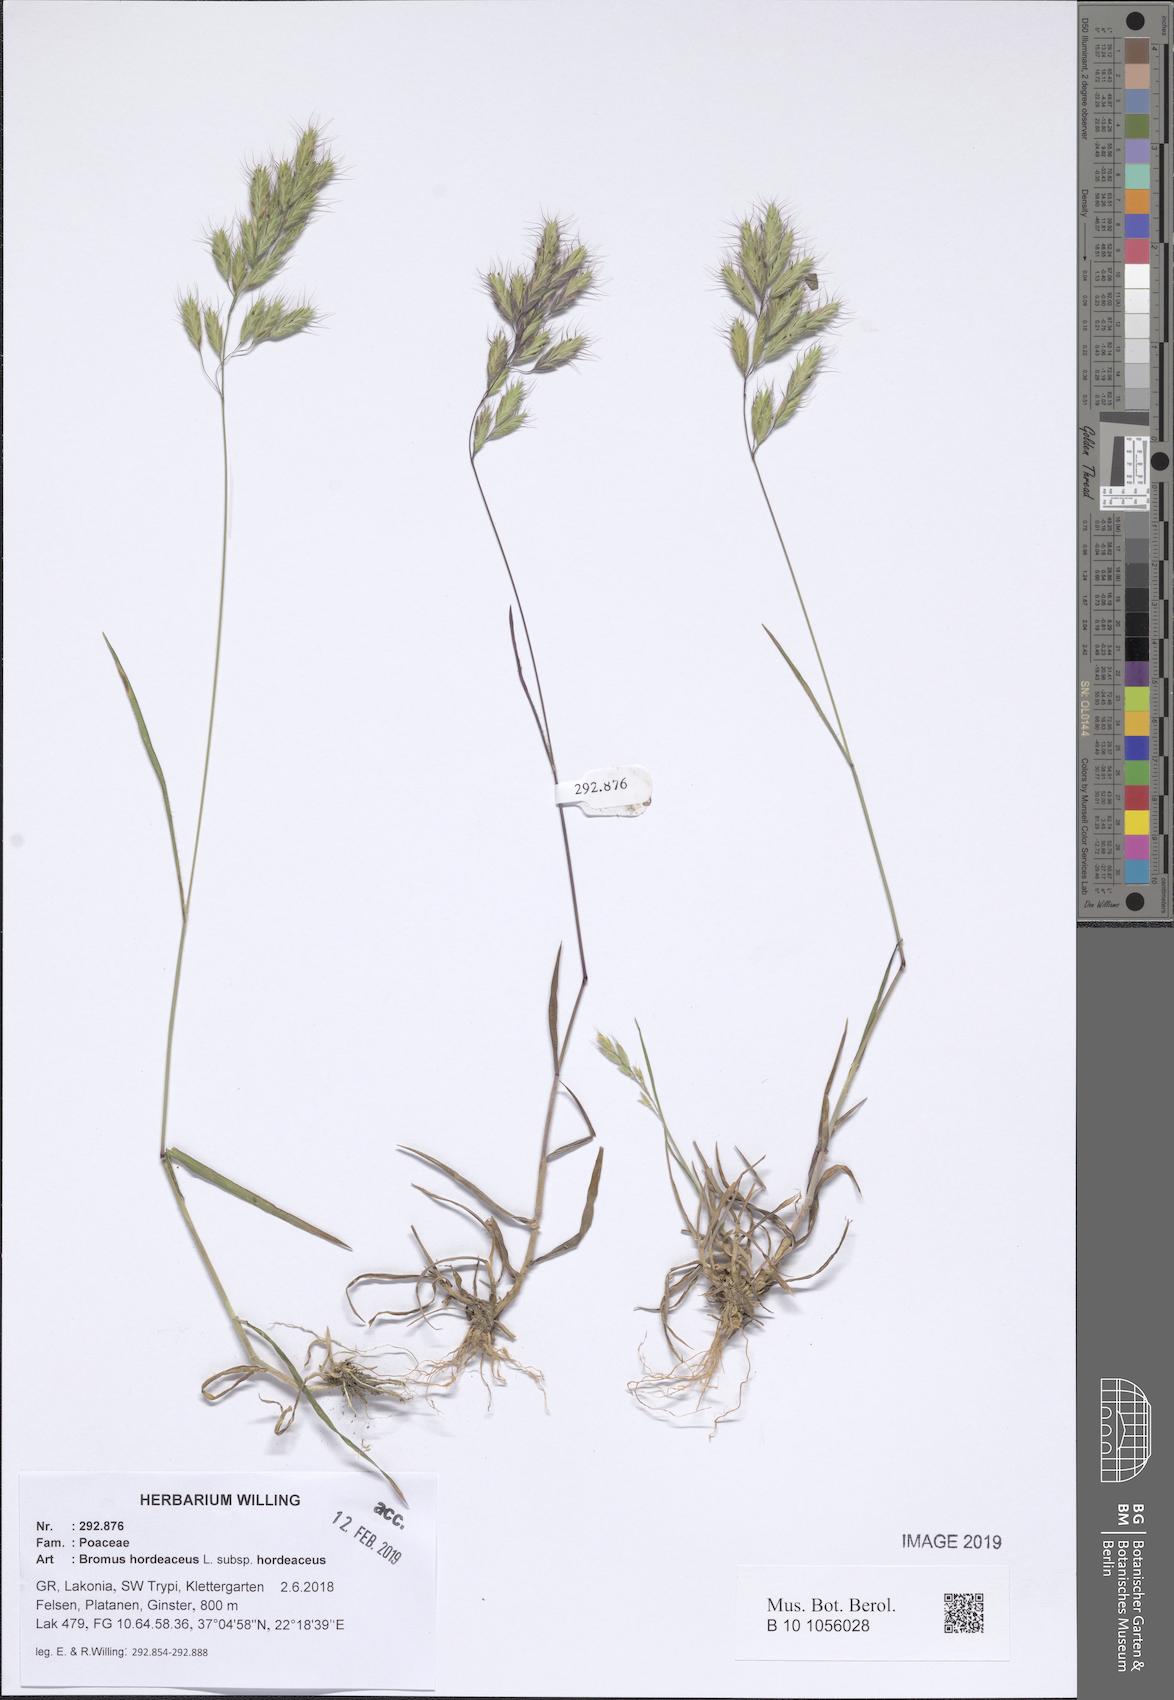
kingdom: Plantae
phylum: Tracheophyta
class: Liliopsida
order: Poales
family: Poaceae
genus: Bromus
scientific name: Bromus hordeaceus
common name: Soft brome
